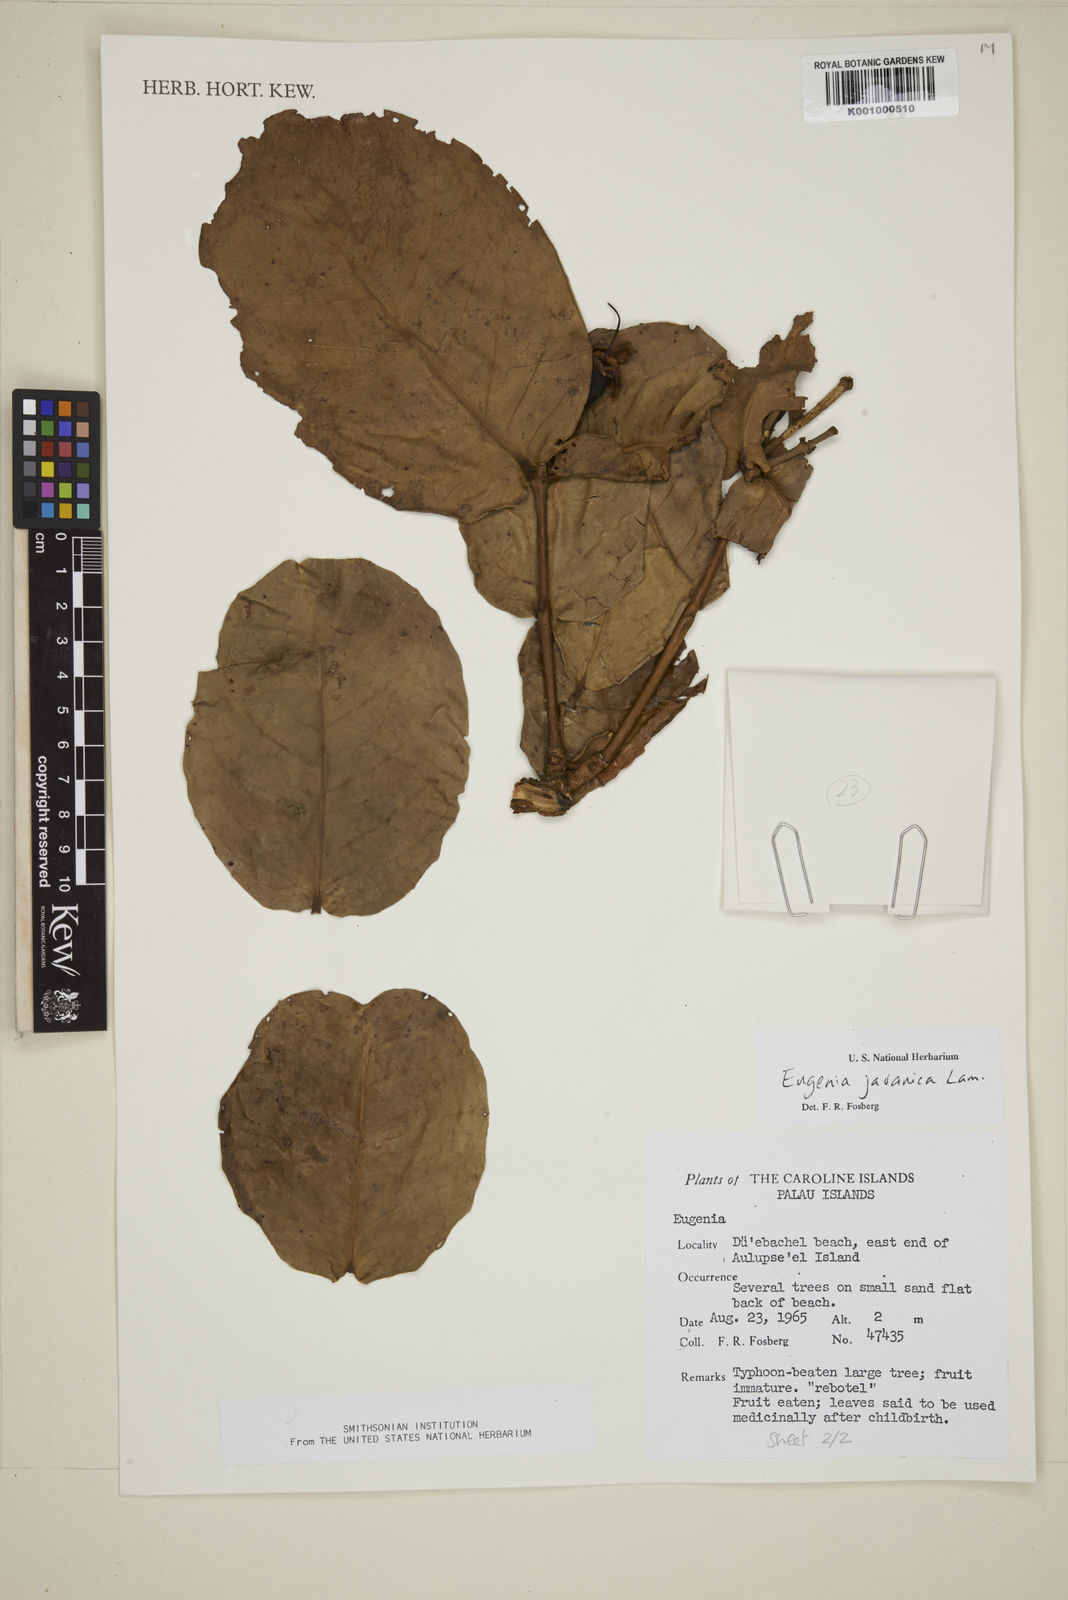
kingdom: Plantae
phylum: Tracheophyta
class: Magnoliopsida
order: Myrtales
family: Myrtaceae
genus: Syzygium
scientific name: Syzygium samarangense
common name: Semarang rose-apple
